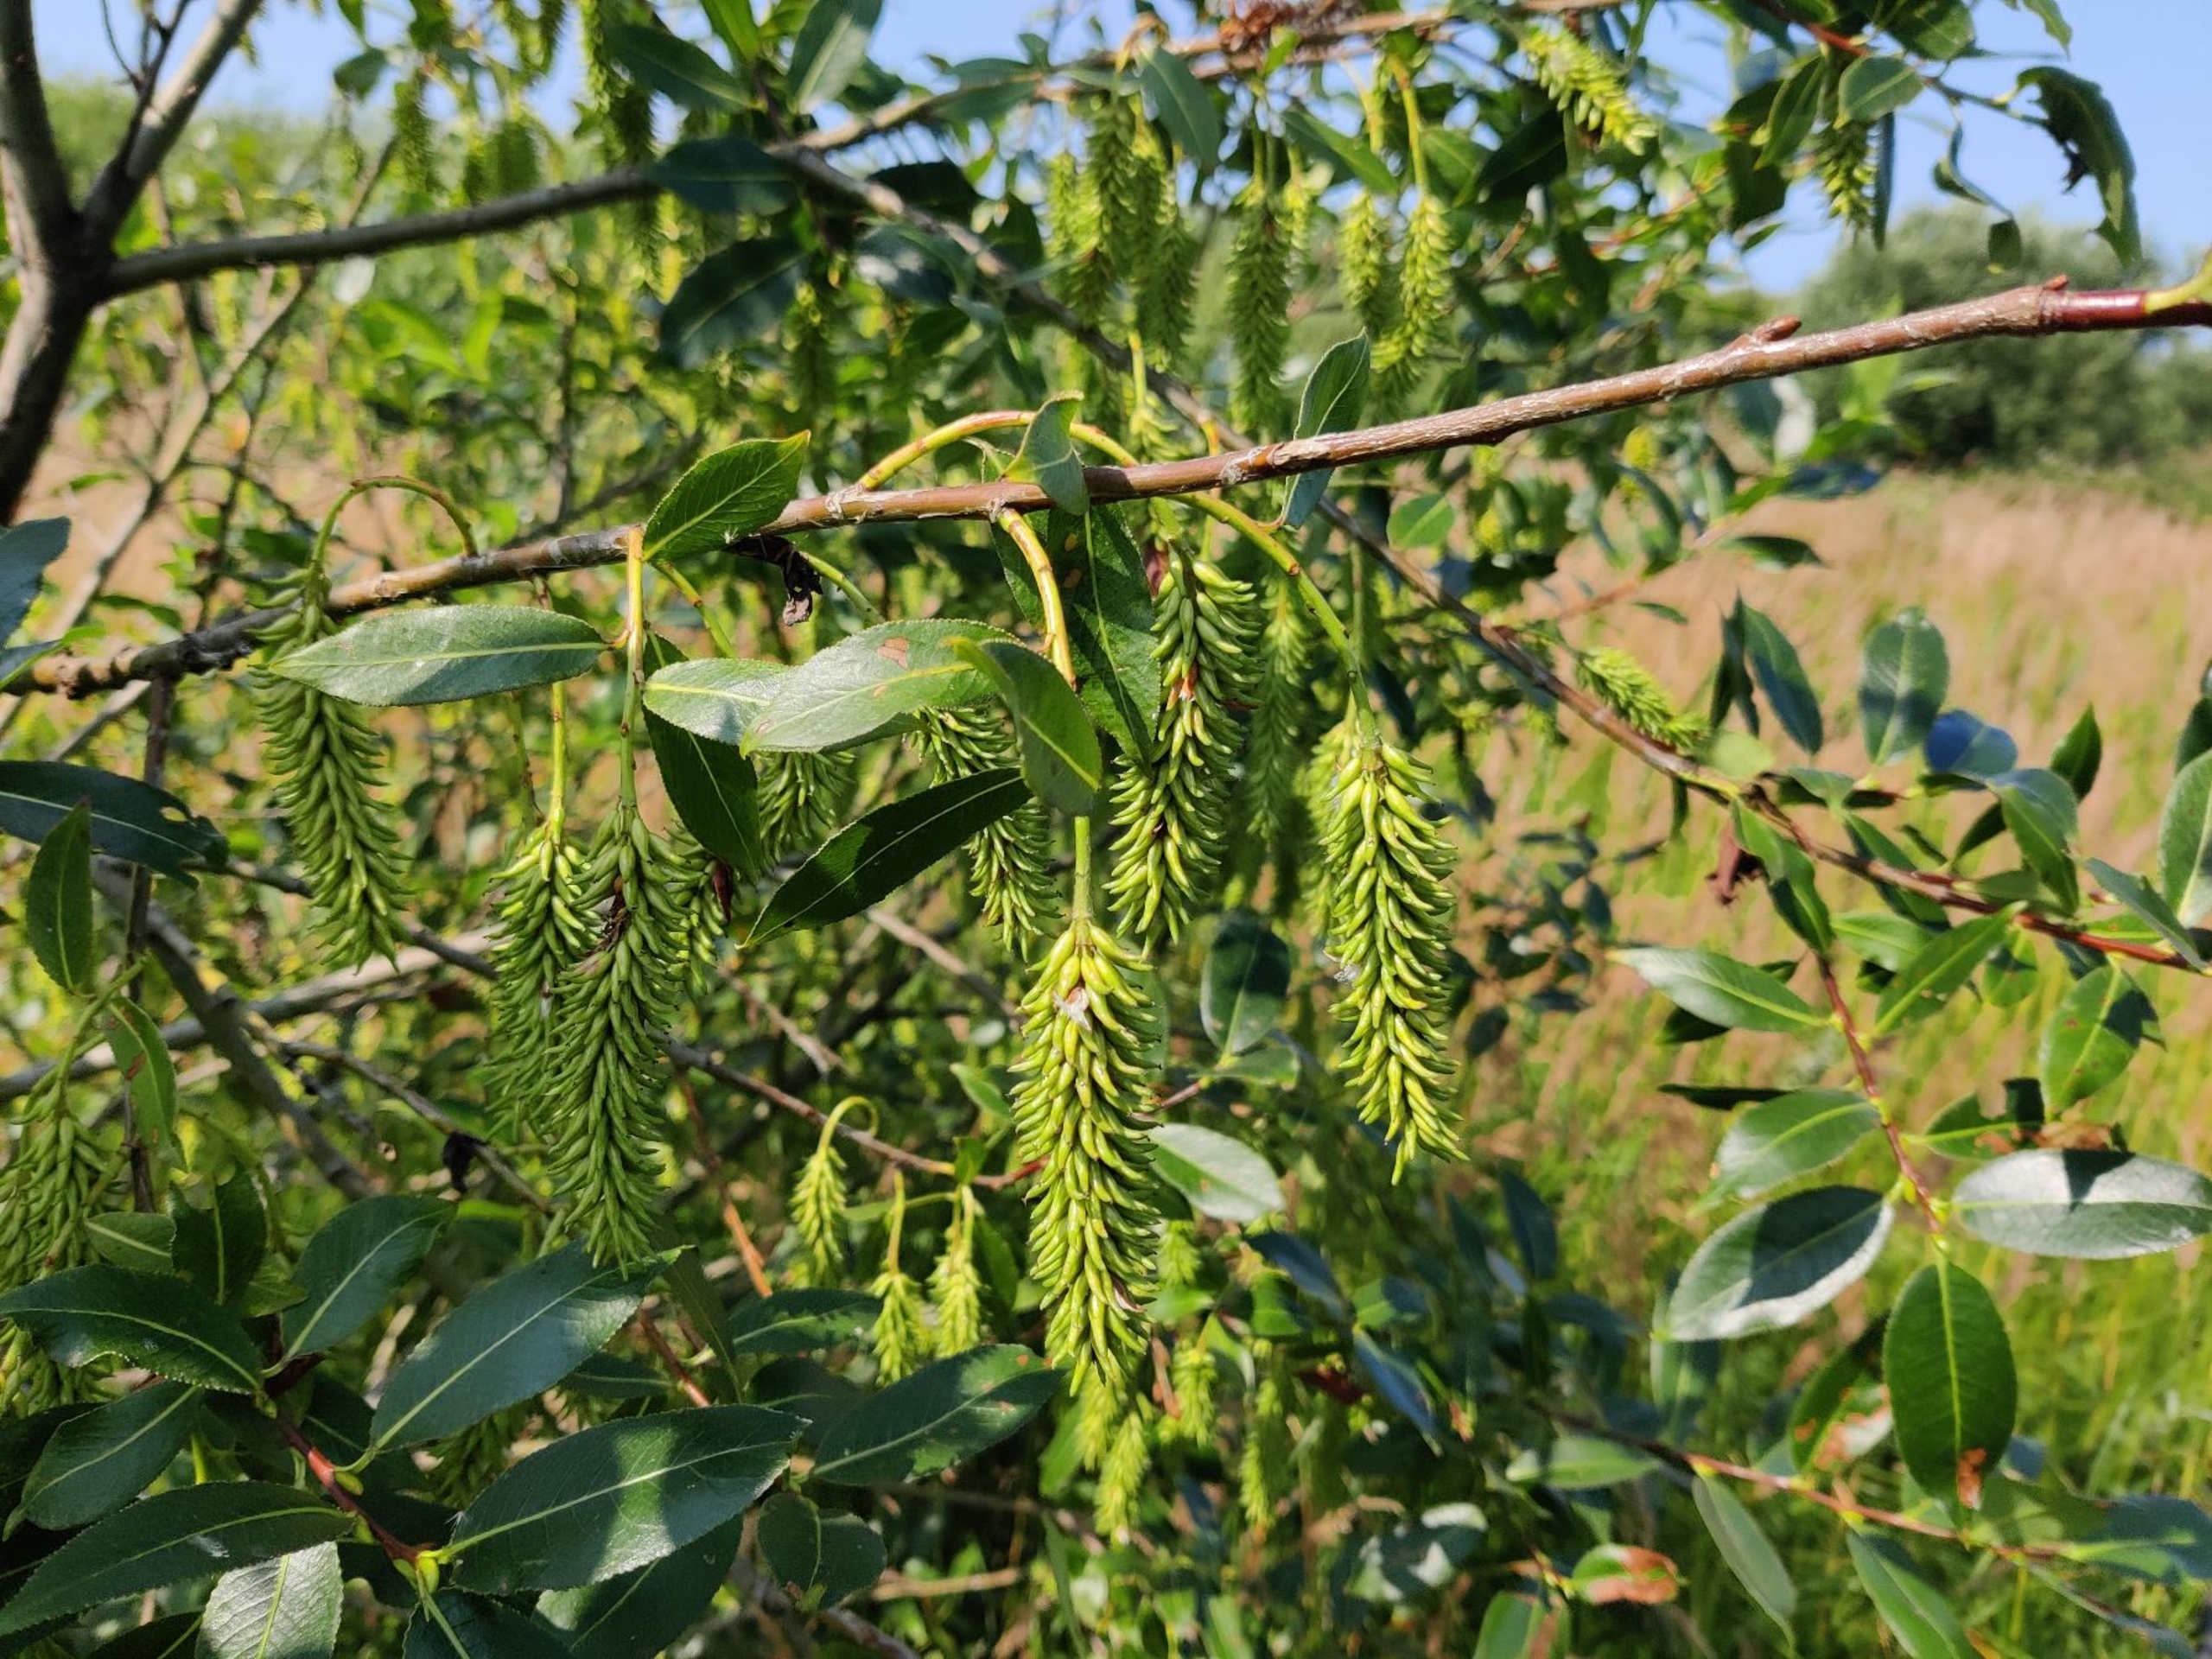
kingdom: Plantae
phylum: Tracheophyta
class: Magnoliopsida
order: Malpighiales
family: Salicaceae
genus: Salix
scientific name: Salix pentandra
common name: Femhannet pil
